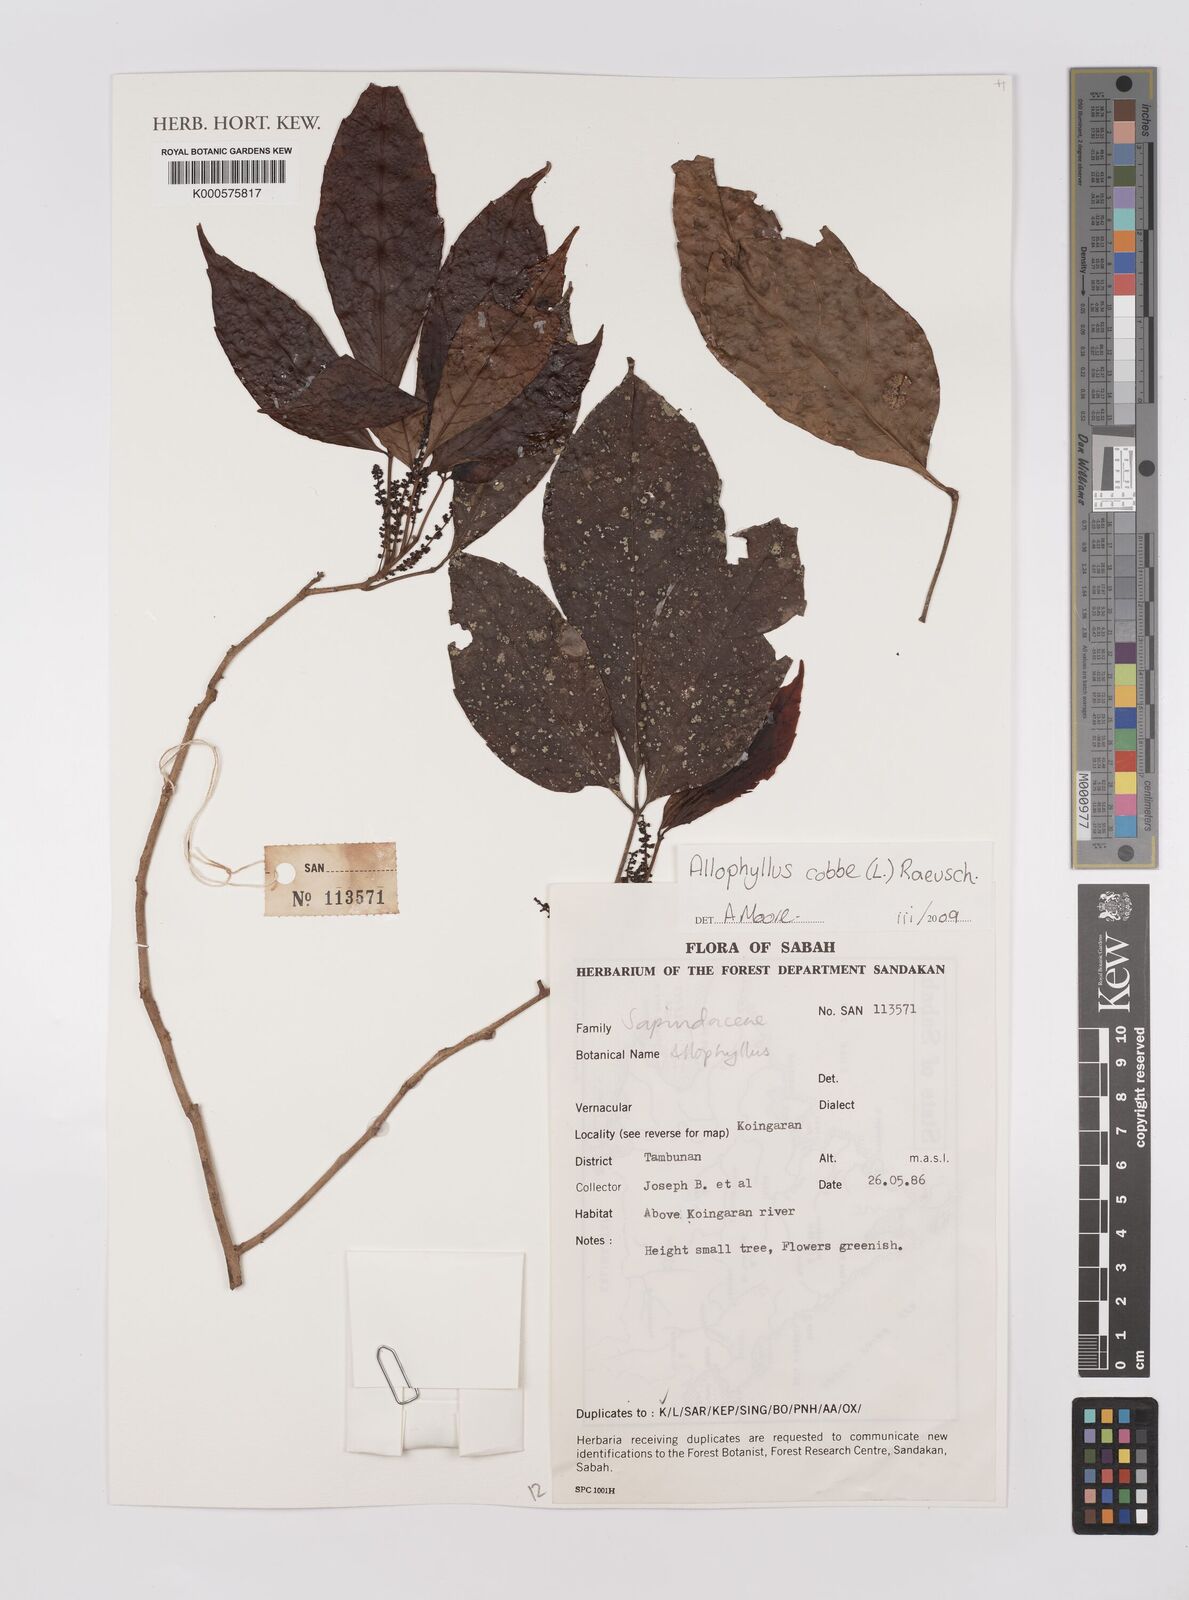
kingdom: Plantae
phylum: Tracheophyta
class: Magnoliopsida
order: Sapindales
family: Sapindaceae
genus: Allophylus
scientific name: Allophylus
